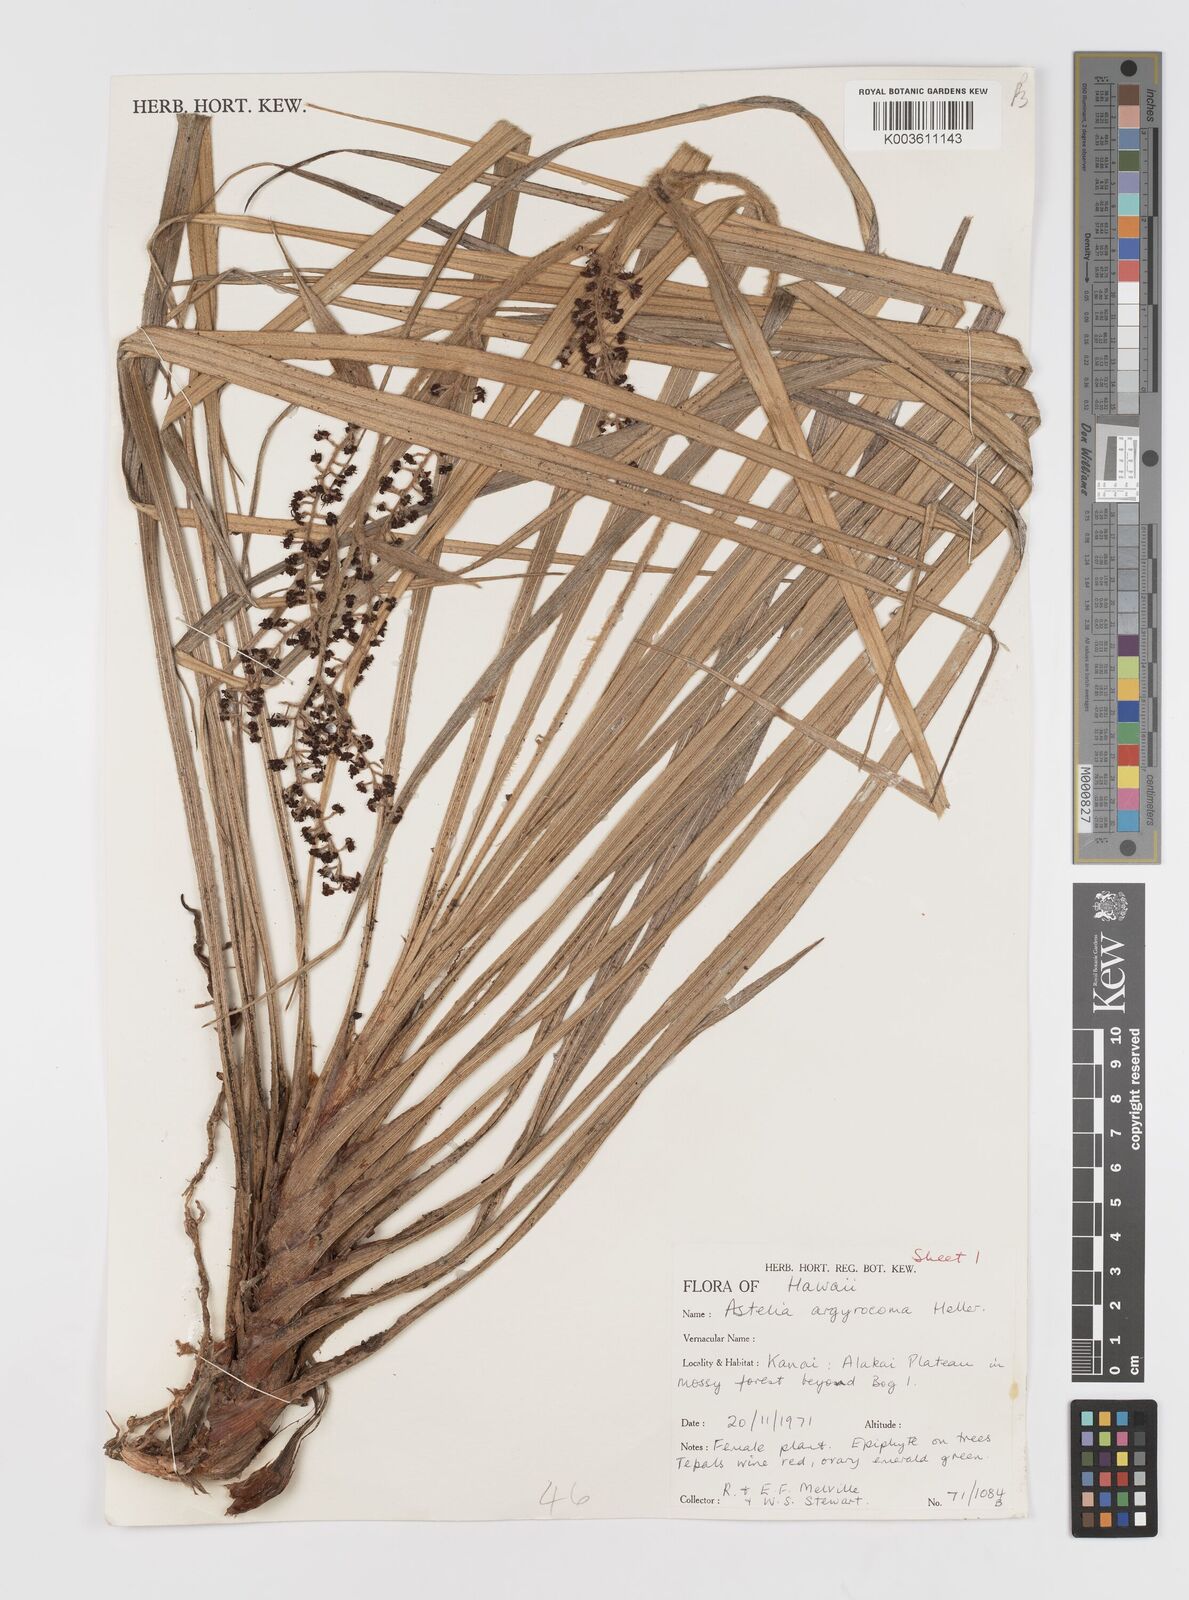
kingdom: Plantae
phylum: Tracheophyta
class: Liliopsida
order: Asparagales
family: Asteliaceae
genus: Astelia
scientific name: Astelia argyrocoma
